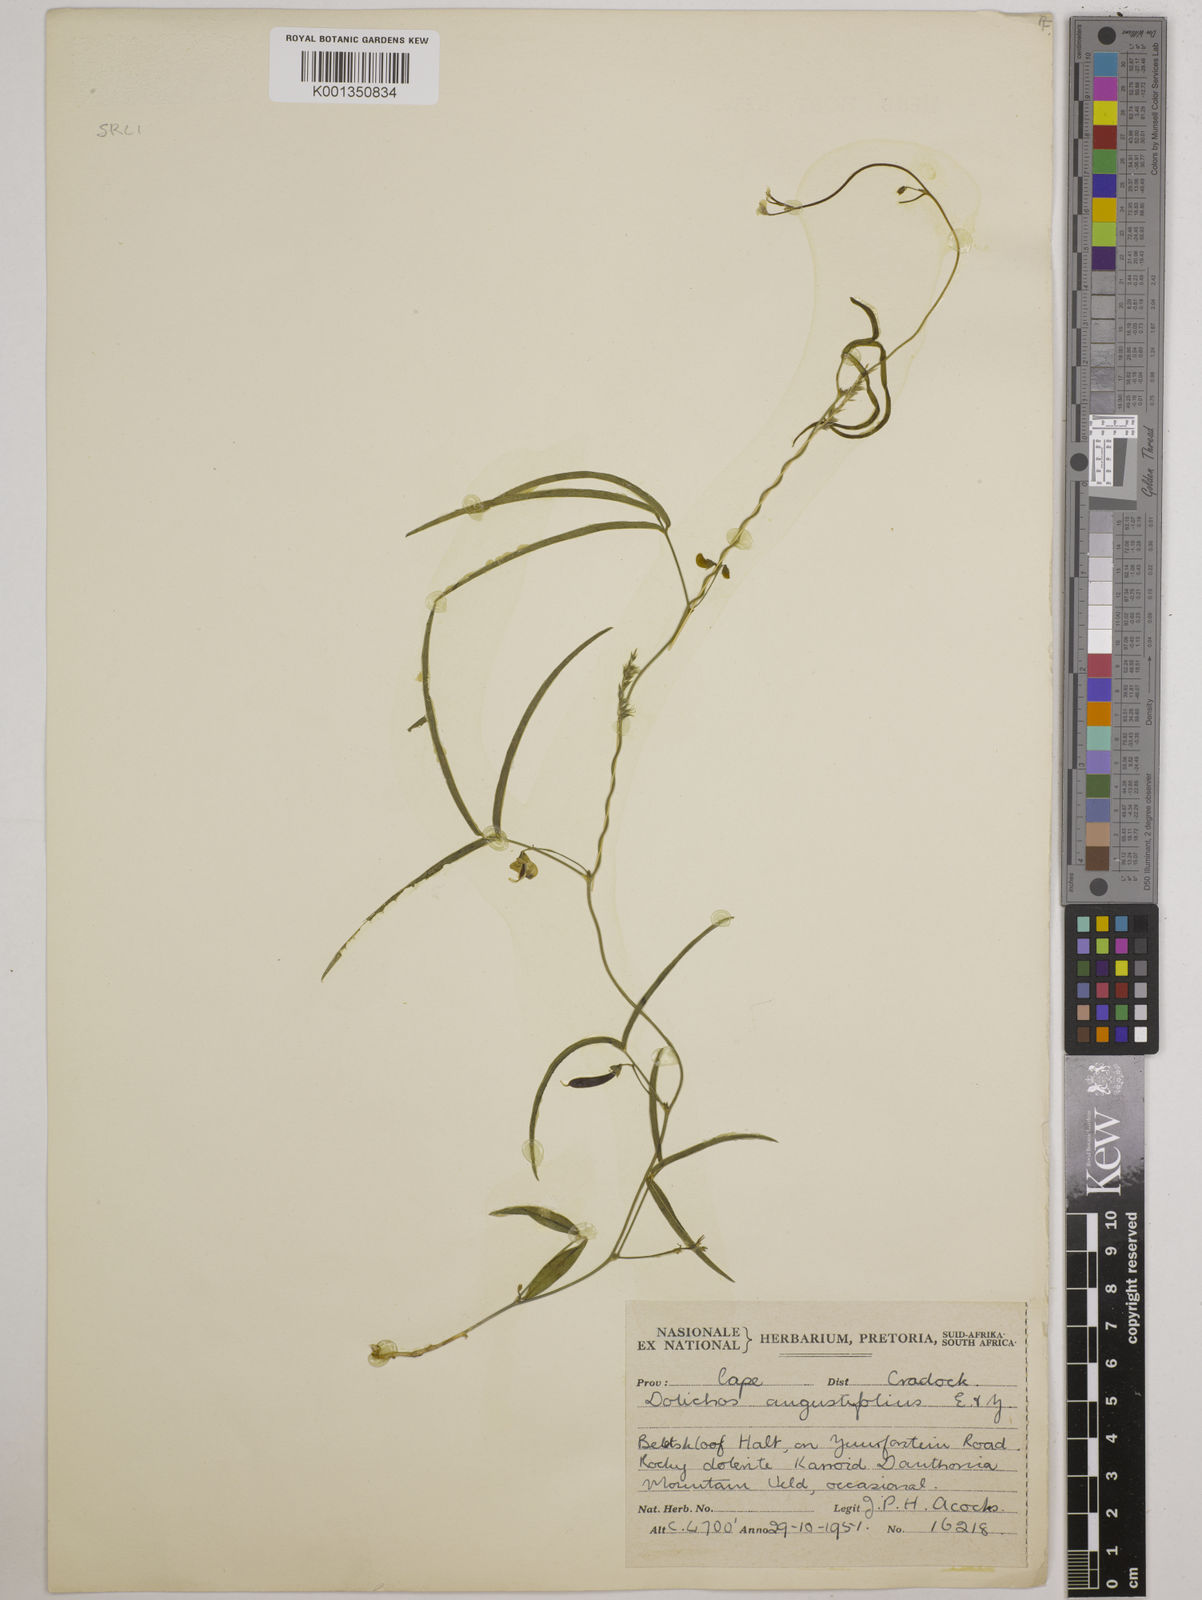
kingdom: Plantae
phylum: Tracheophyta
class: Magnoliopsida
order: Fabales
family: Fabaceae
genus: Dolichos
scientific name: Dolichos linearis
